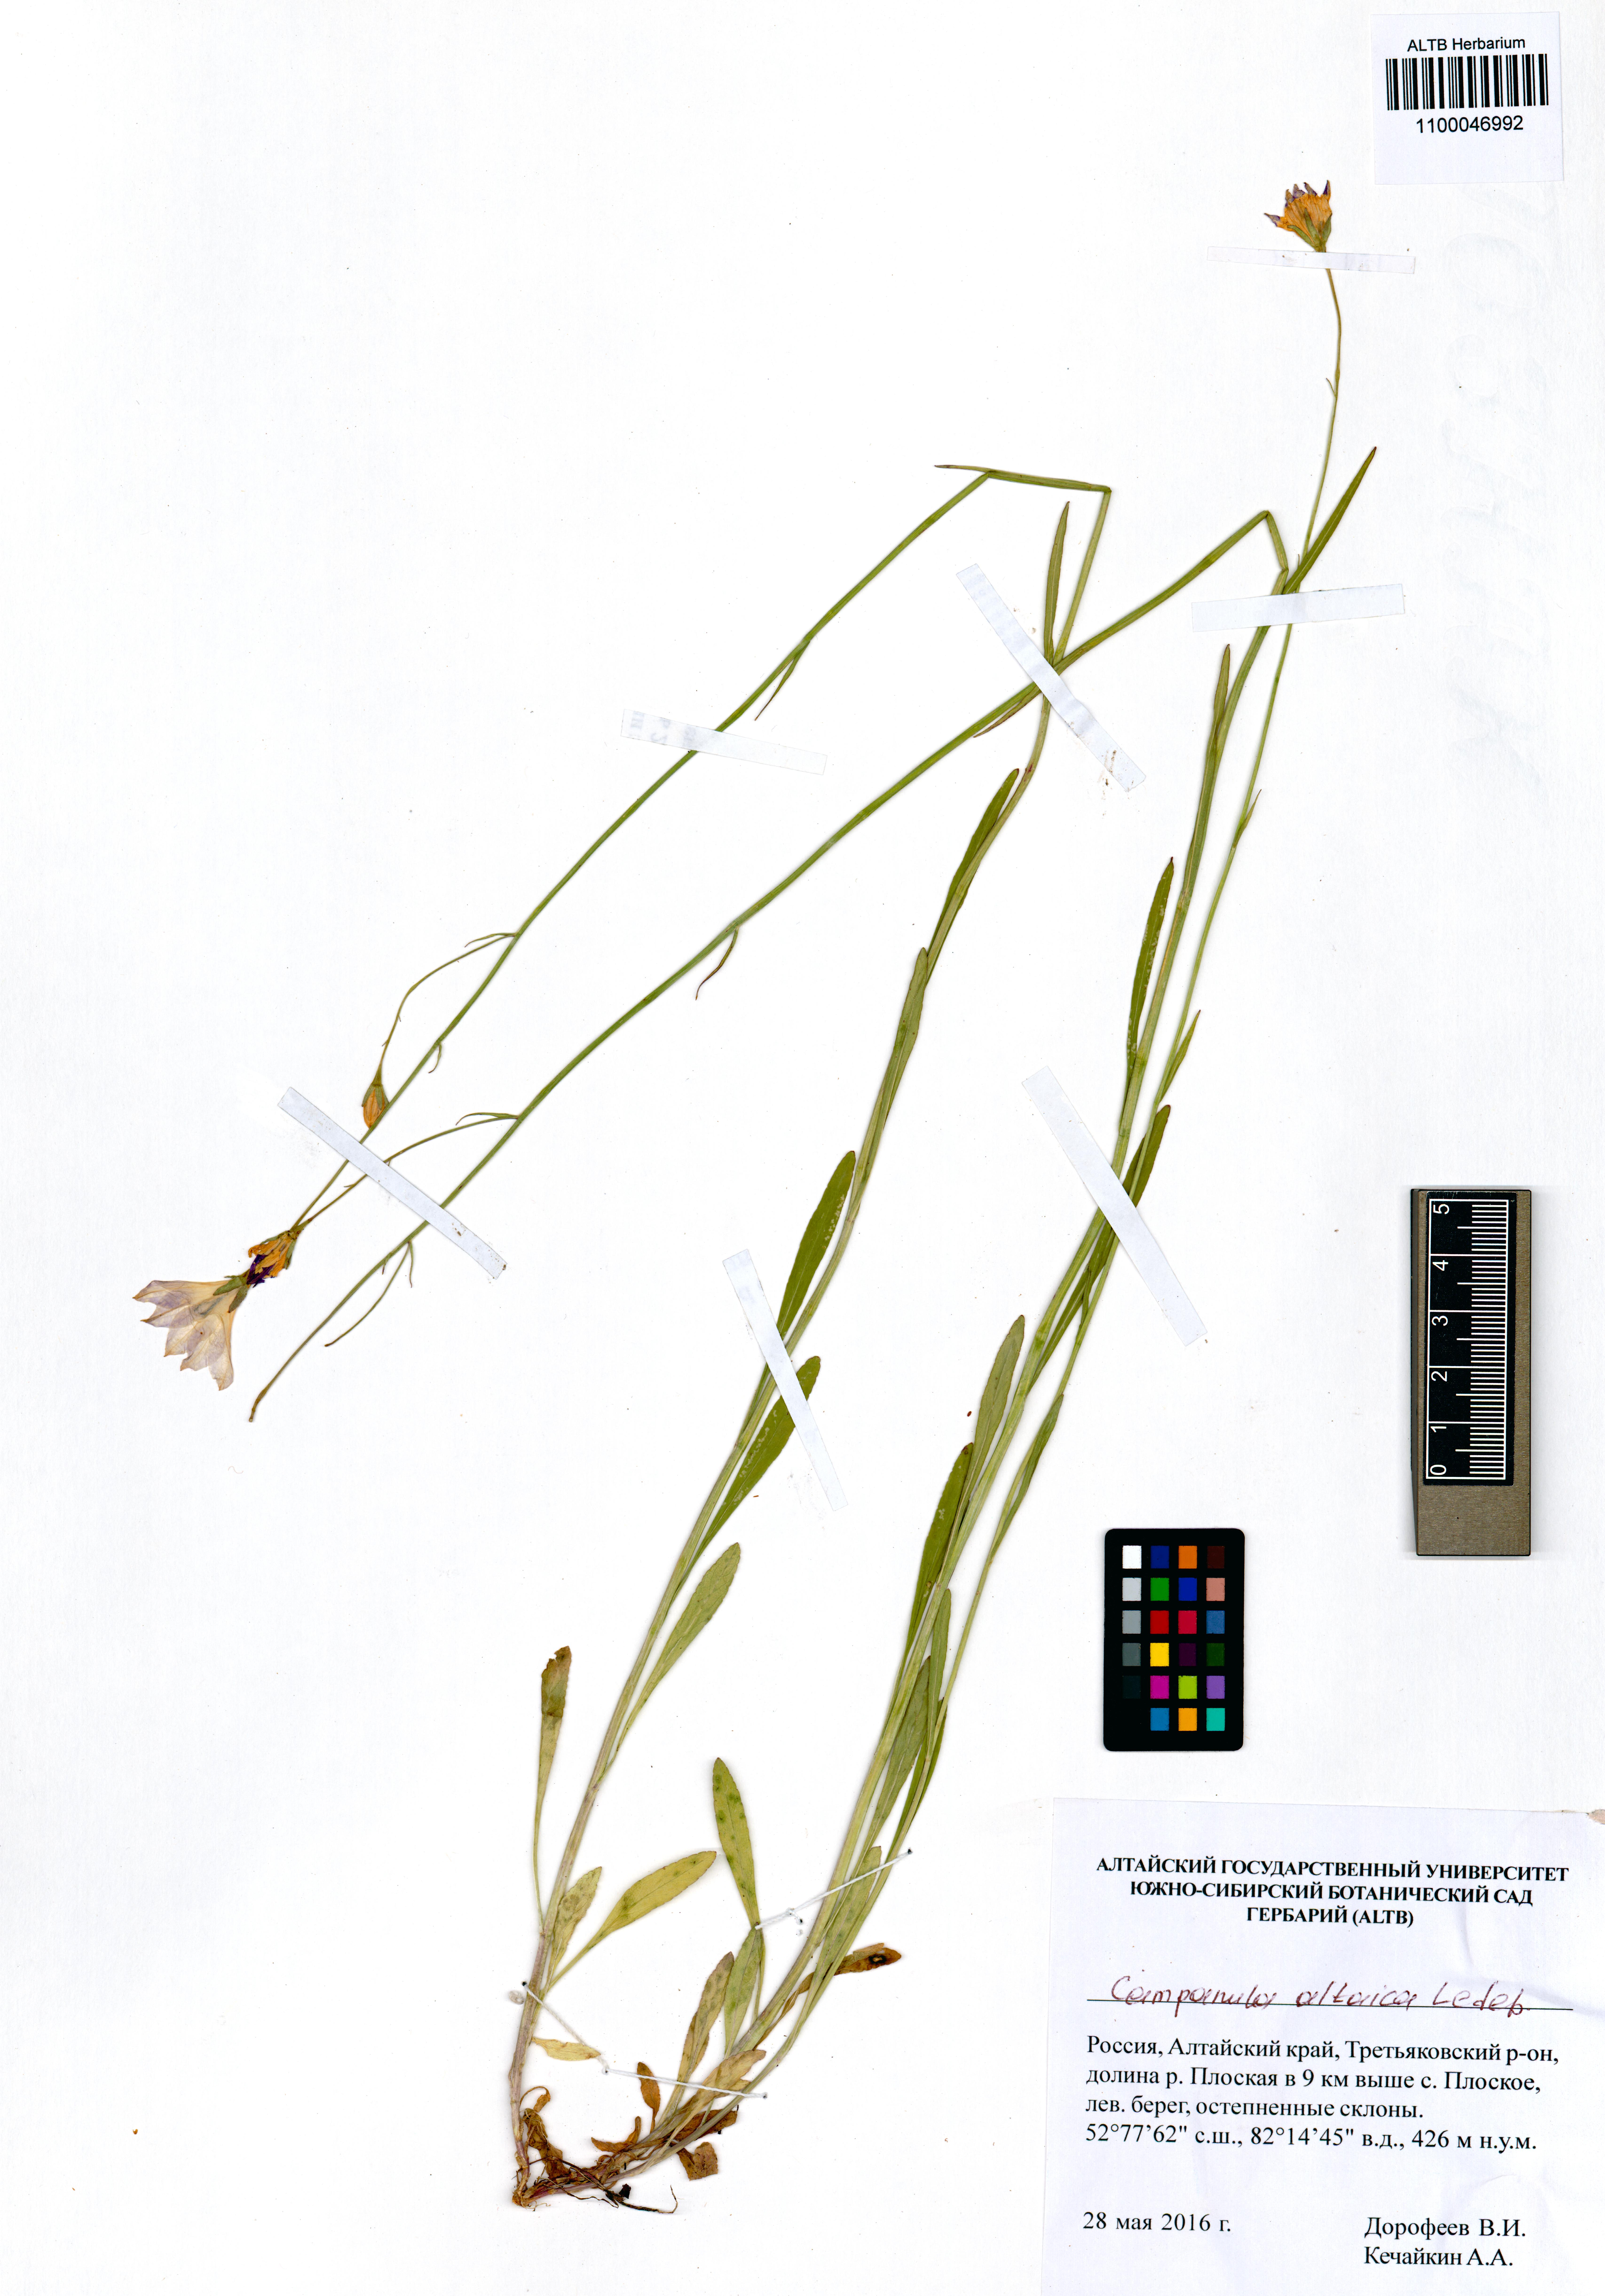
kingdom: Plantae
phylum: Tracheophyta
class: Magnoliopsida
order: Asterales
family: Campanulaceae
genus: Campanula
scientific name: Campanula stevenii
